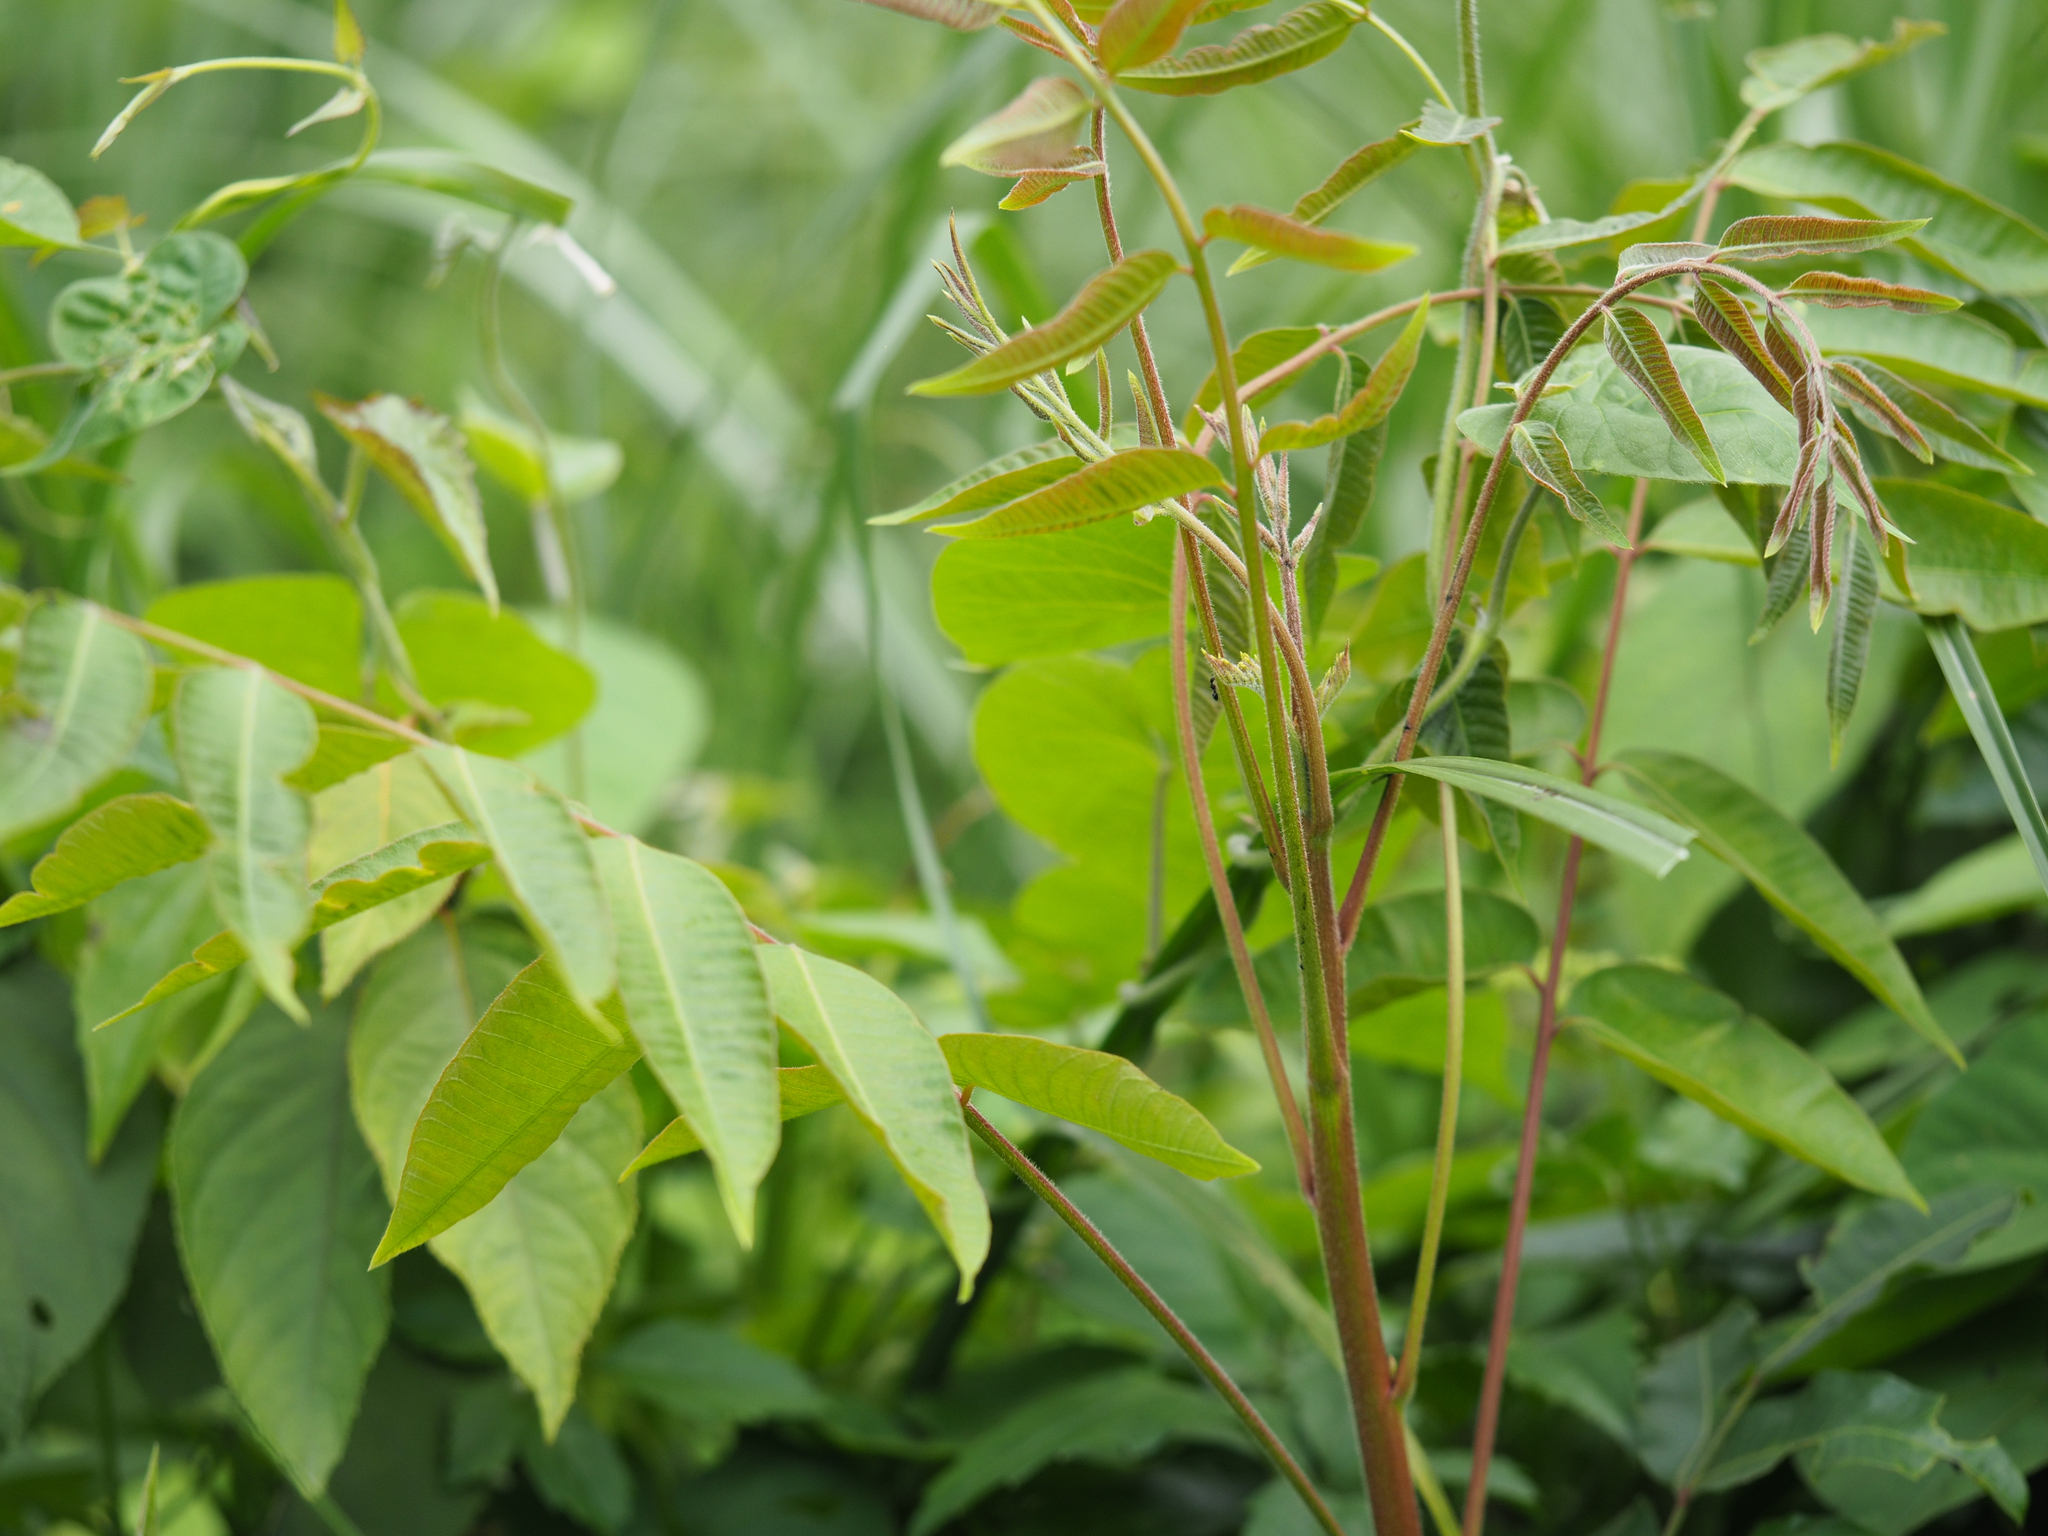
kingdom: Plantae
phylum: Tracheophyta
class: Magnoliopsida
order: Sapindales
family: Anacardiaceae
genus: Toxicodendron
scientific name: Toxicodendron sylvestre
